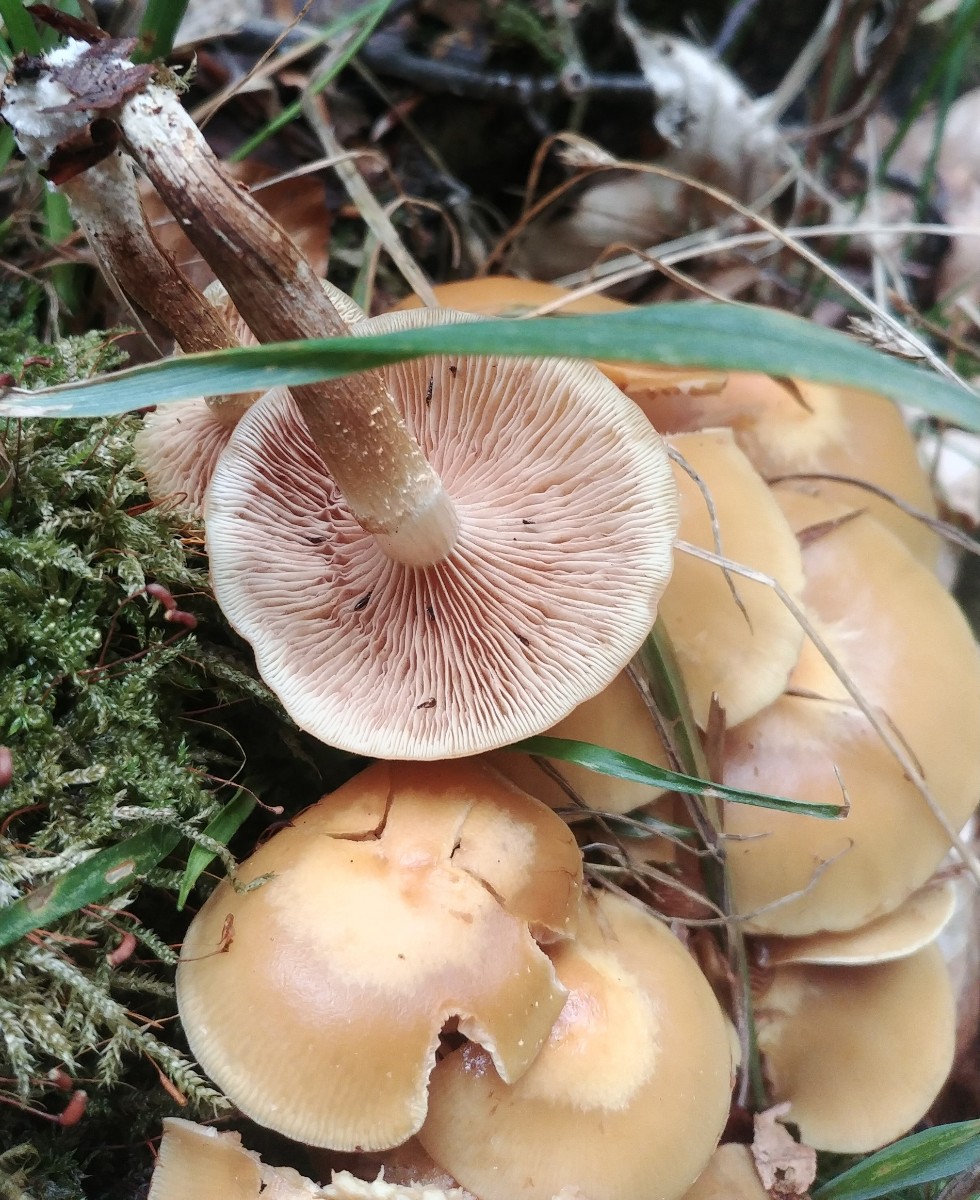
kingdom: Fungi
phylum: Basidiomycota
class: Agaricomycetes
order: Agaricales
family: Strophariaceae
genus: Kuehneromyces
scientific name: Kuehneromyces mutabilis
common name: foranderlig skælhat
